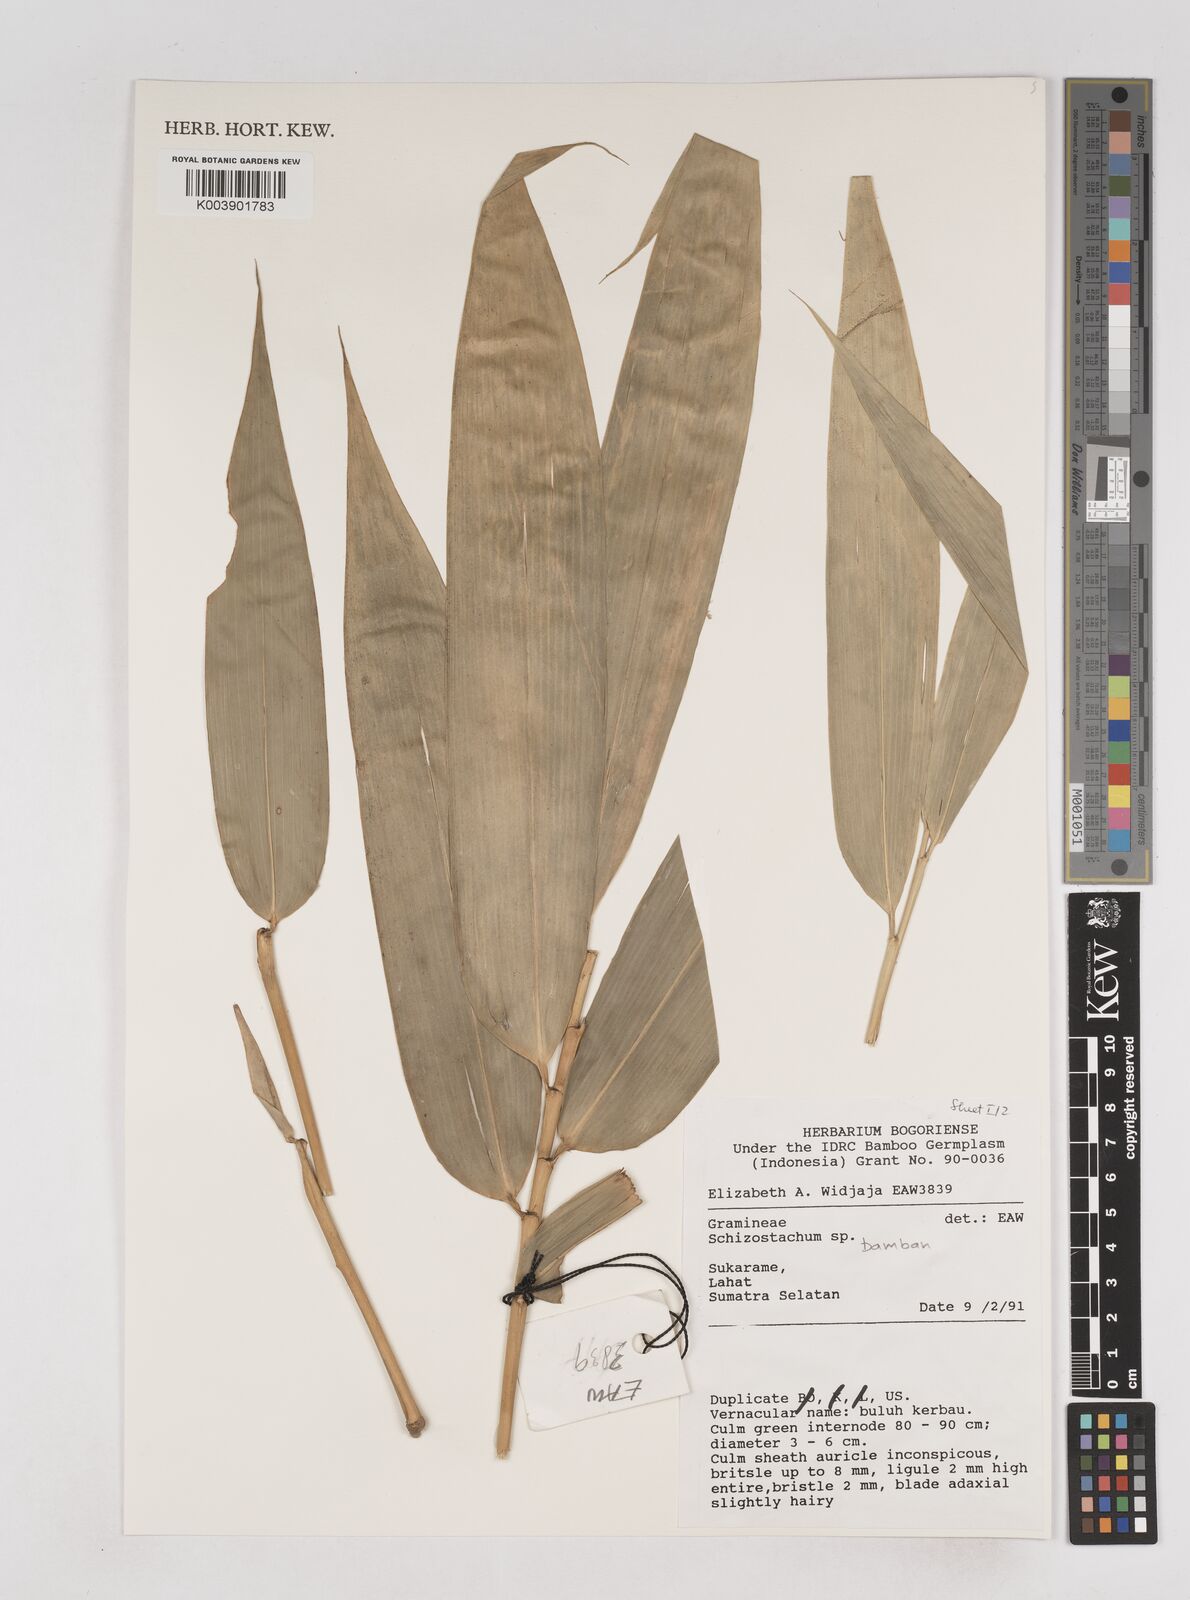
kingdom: Plantae
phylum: Tracheophyta
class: Liliopsida
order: Poales
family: Poaceae
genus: Schizostachyum
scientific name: Schizostachyum bamban
